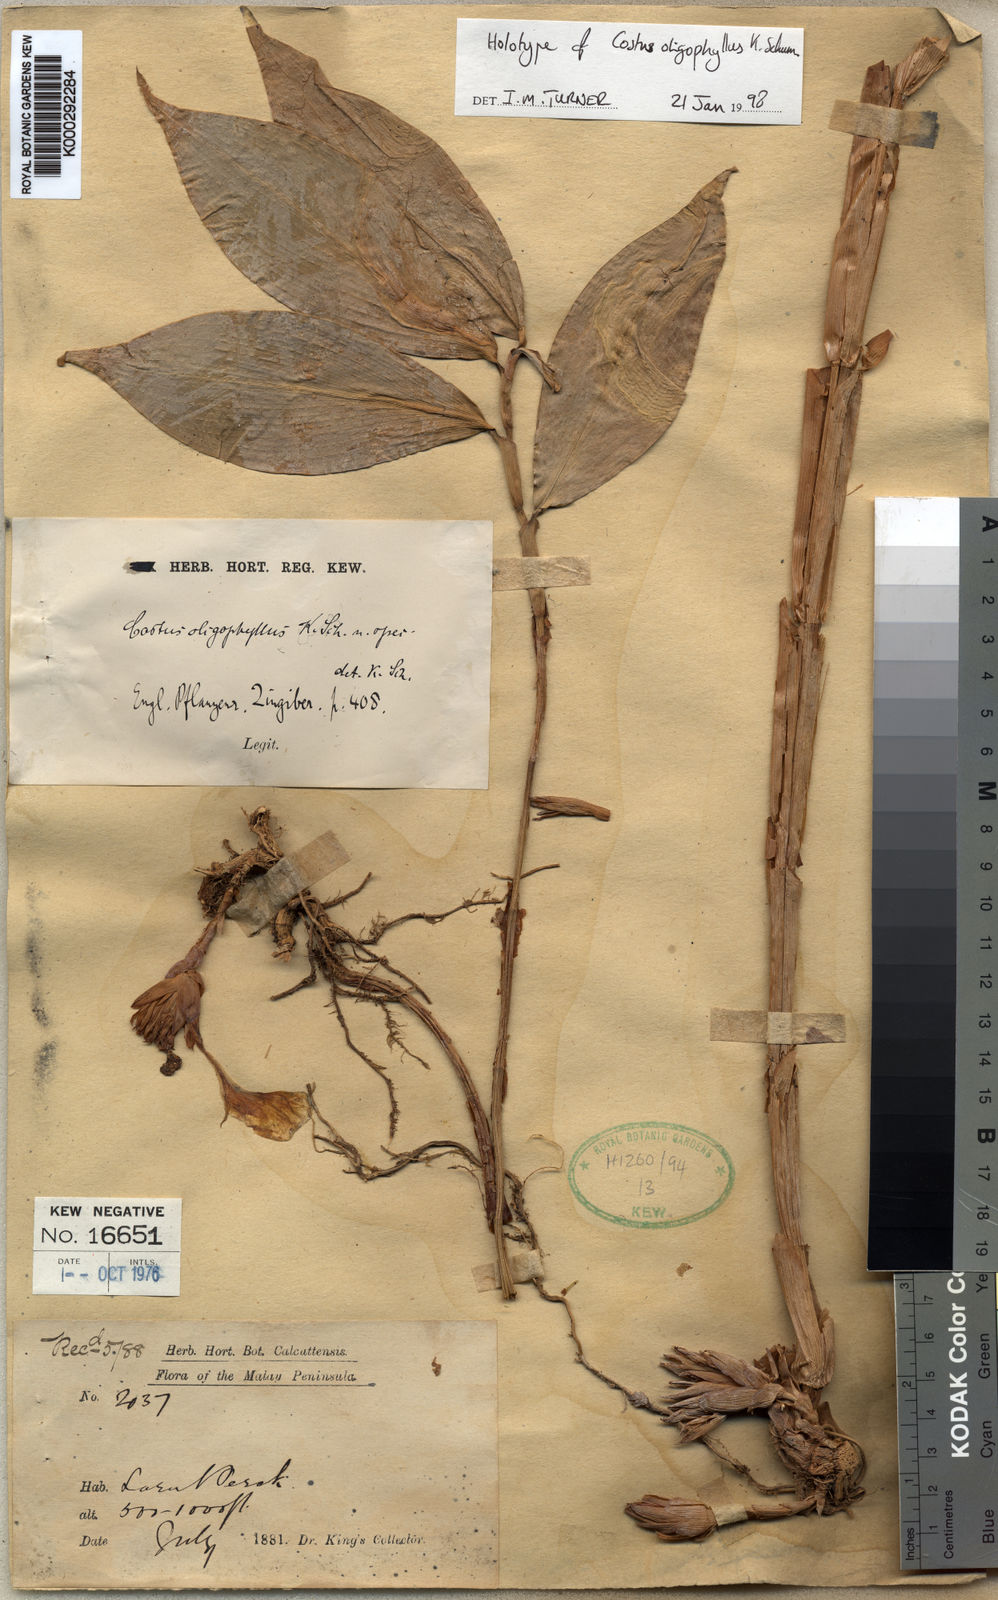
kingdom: Plantae
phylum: Tracheophyta
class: Liliopsida
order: Zingiberales
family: Costaceae
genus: Costus
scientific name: Costus oligophyllus
